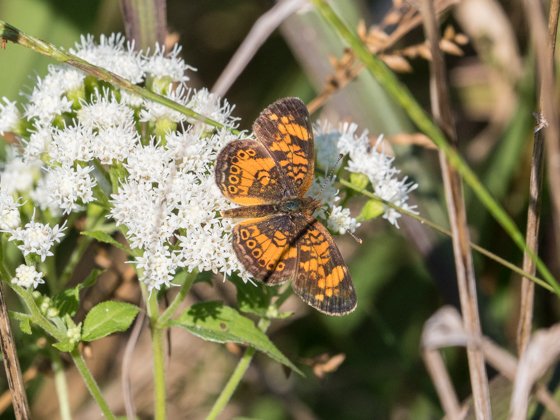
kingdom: Animalia
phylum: Arthropoda
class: Insecta
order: Lepidoptera
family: Nymphalidae
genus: Phyciodes
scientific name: Phyciodes tharos
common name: Pearl Crescent
